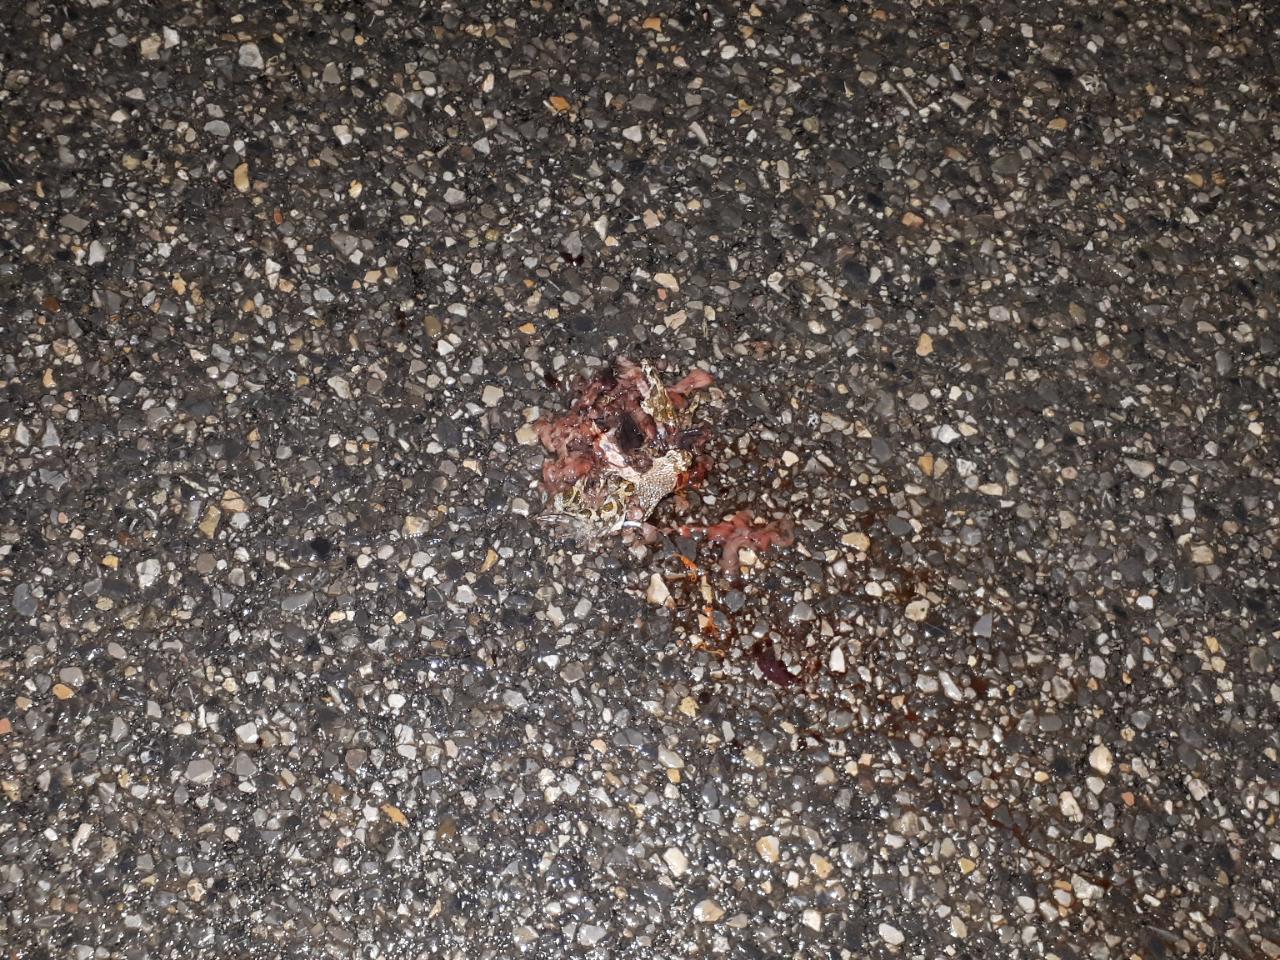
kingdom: Animalia
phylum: Chordata
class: Amphibia
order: Anura
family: Bufonidae
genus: Bufotes
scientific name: Bufotes viridis
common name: European green toad
